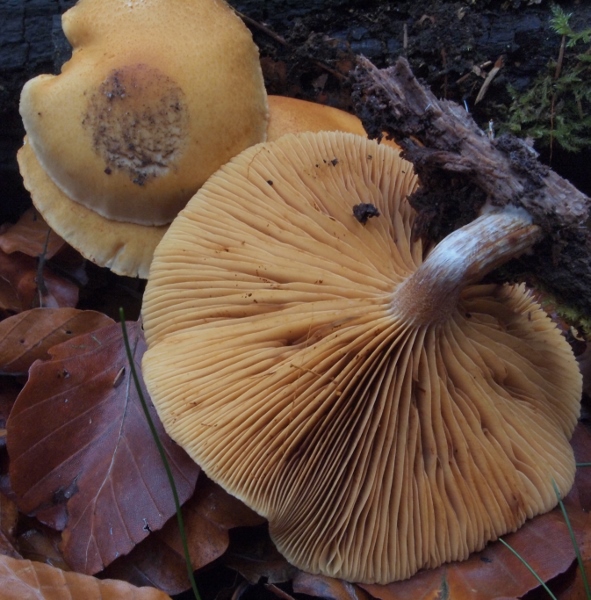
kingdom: Fungi
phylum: Basidiomycota
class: Agaricomycetes
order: Agaricales
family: Hymenogastraceae
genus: Gymnopilus
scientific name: Gymnopilus penetrans
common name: plettet flammehat
